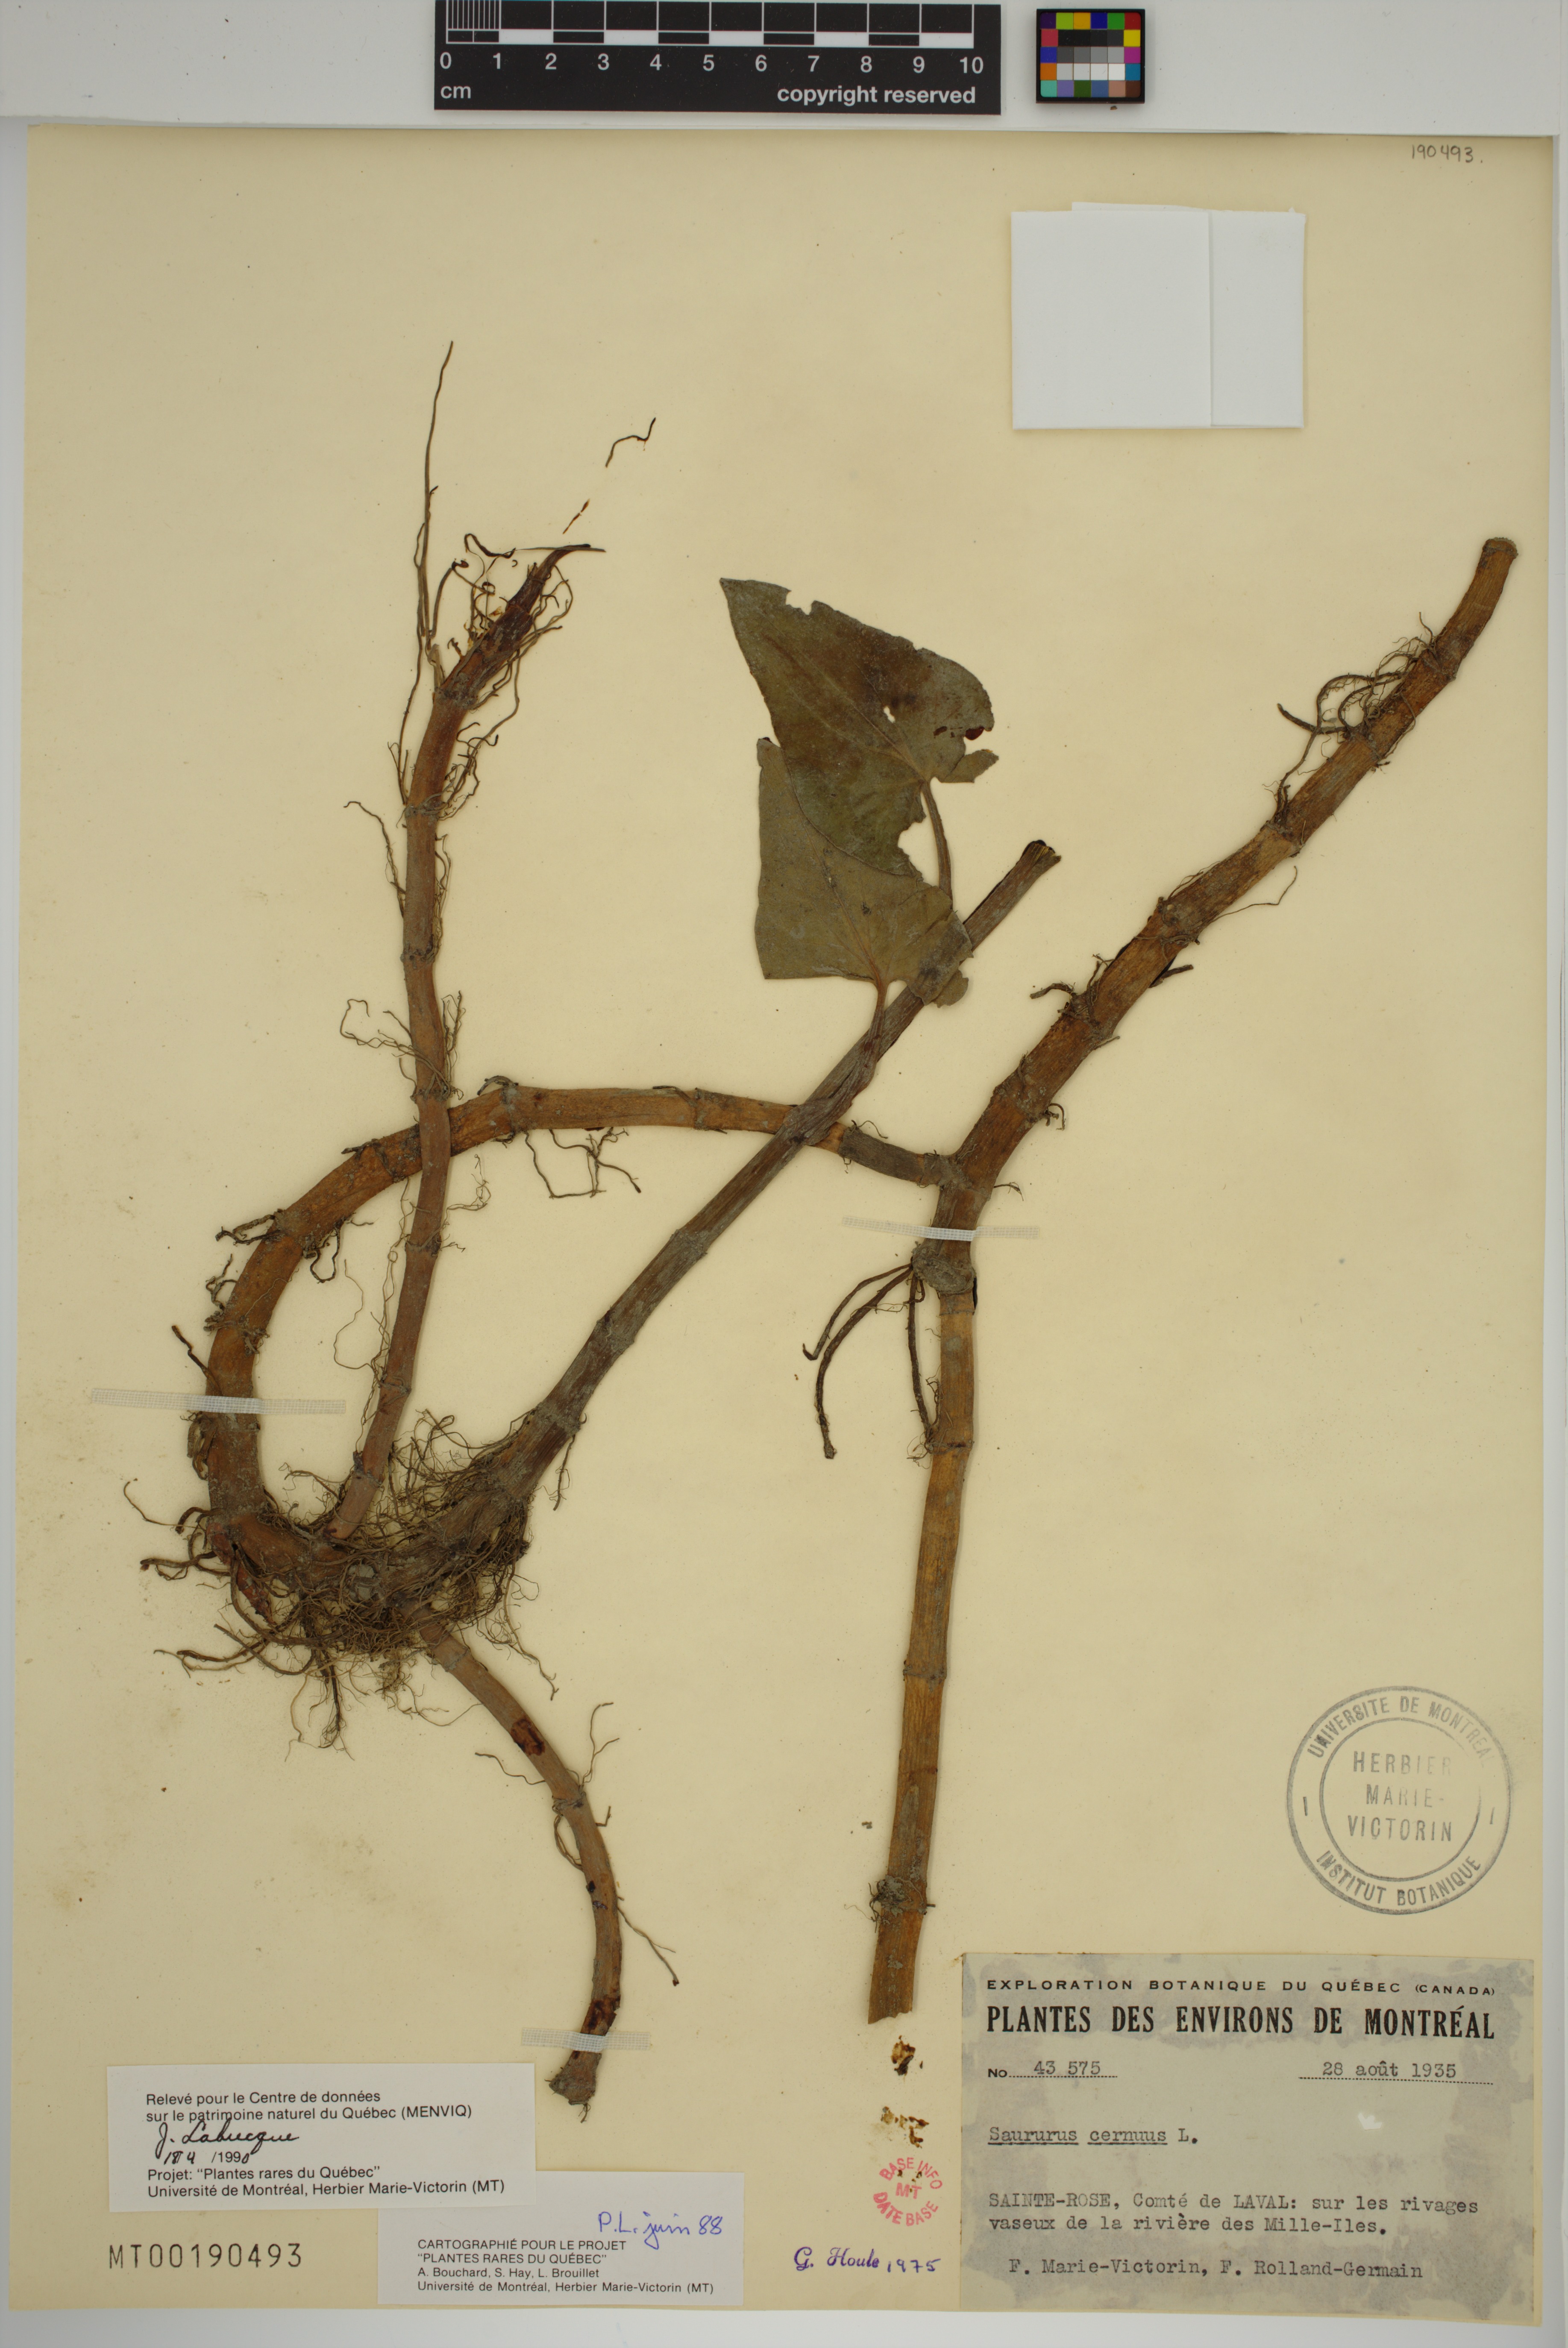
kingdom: Plantae
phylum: Tracheophyta
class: Magnoliopsida
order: Piperales
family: Saururaceae
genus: Saururus
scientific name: Saururus cernuus
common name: Lizard's-tail
